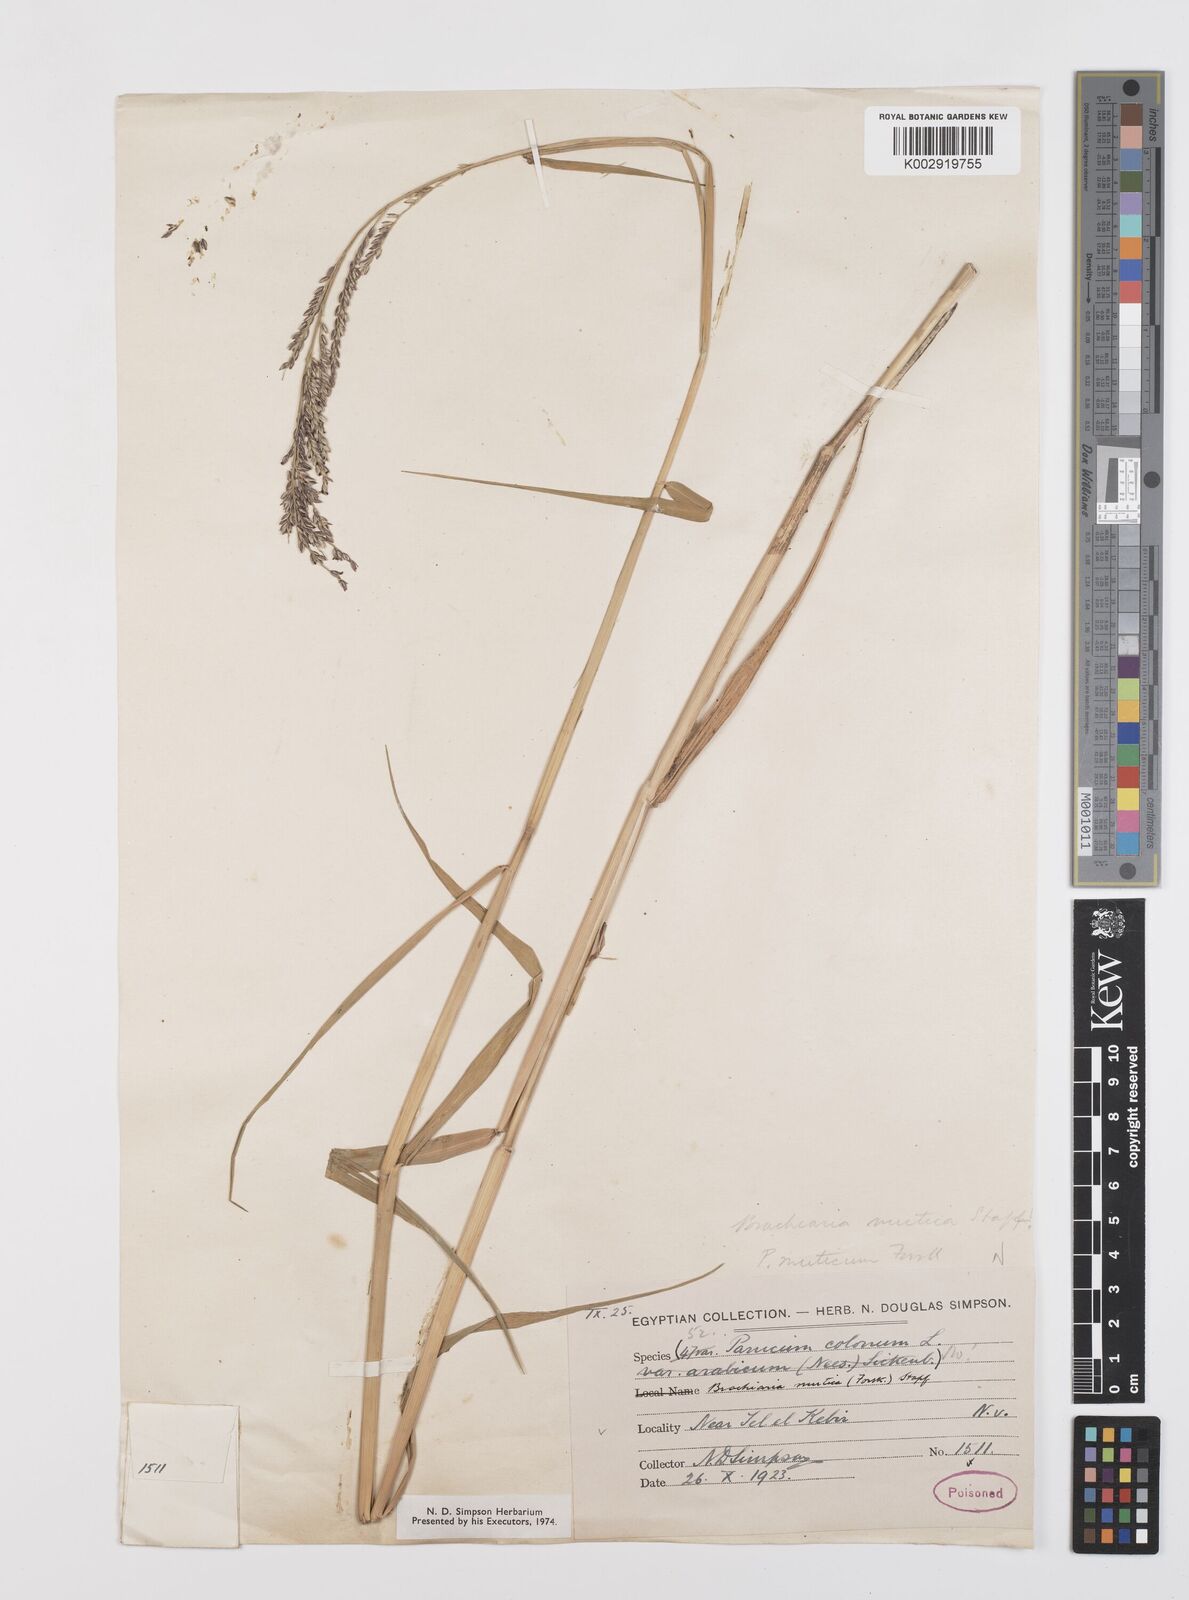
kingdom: Plantae
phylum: Tracheophyta
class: Liliopsida
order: Poales
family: Poaceae
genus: Urochloa
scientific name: Urochloa mutica
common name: Para grass
